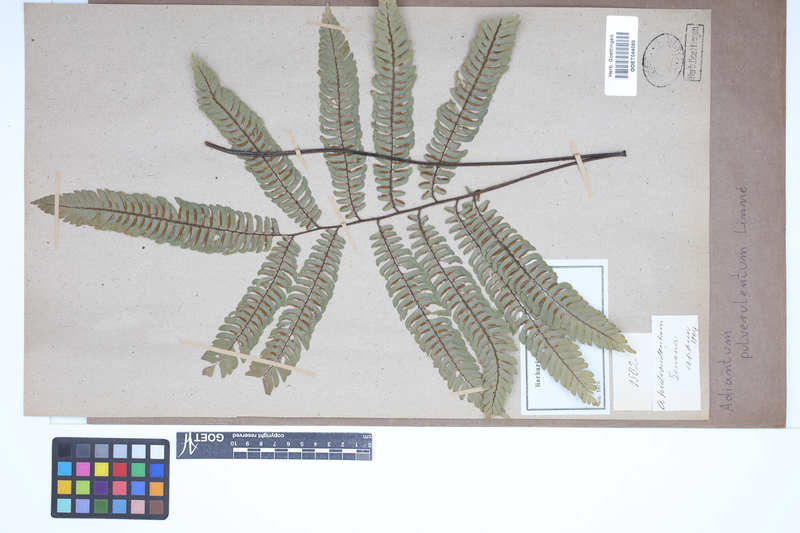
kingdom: Plantae
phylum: Tracheophyta
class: Polypodiopsida
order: Polypodiales
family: Pteridaceae
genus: Adiantum
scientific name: Adiantum pulverulentum
